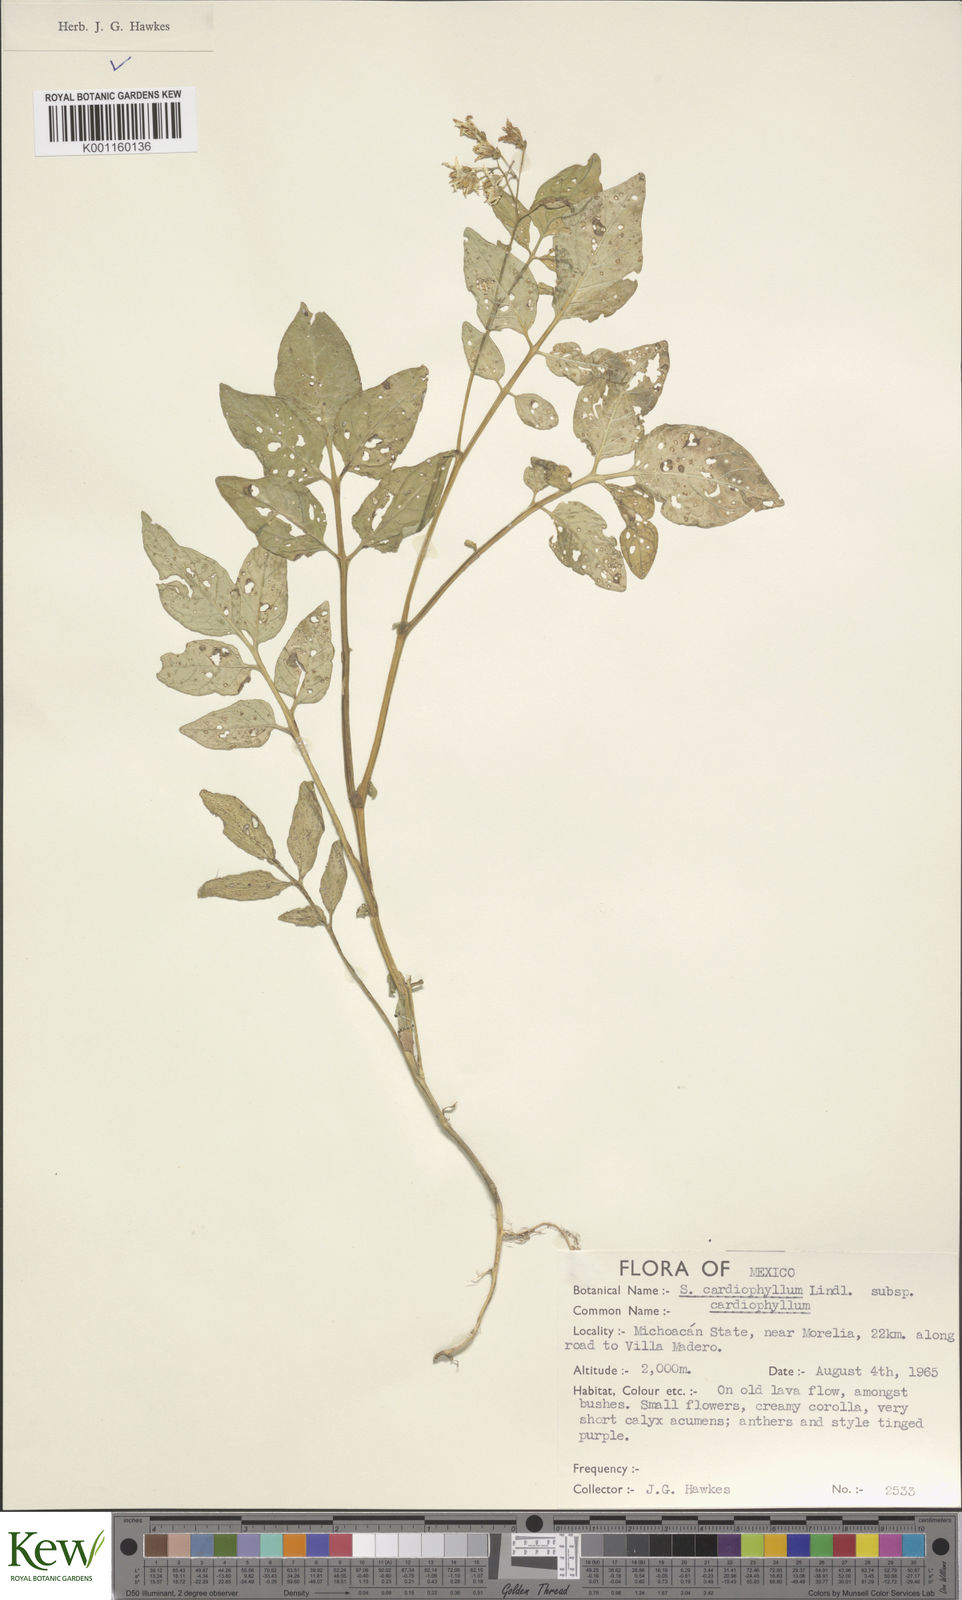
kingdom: Plantae
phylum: Tracheophyta
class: Magnoliopsida
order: Solanales
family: Solanaceae
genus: Solanum
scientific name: Solanum cardiophyllum
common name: Heartleaf horsenettle
